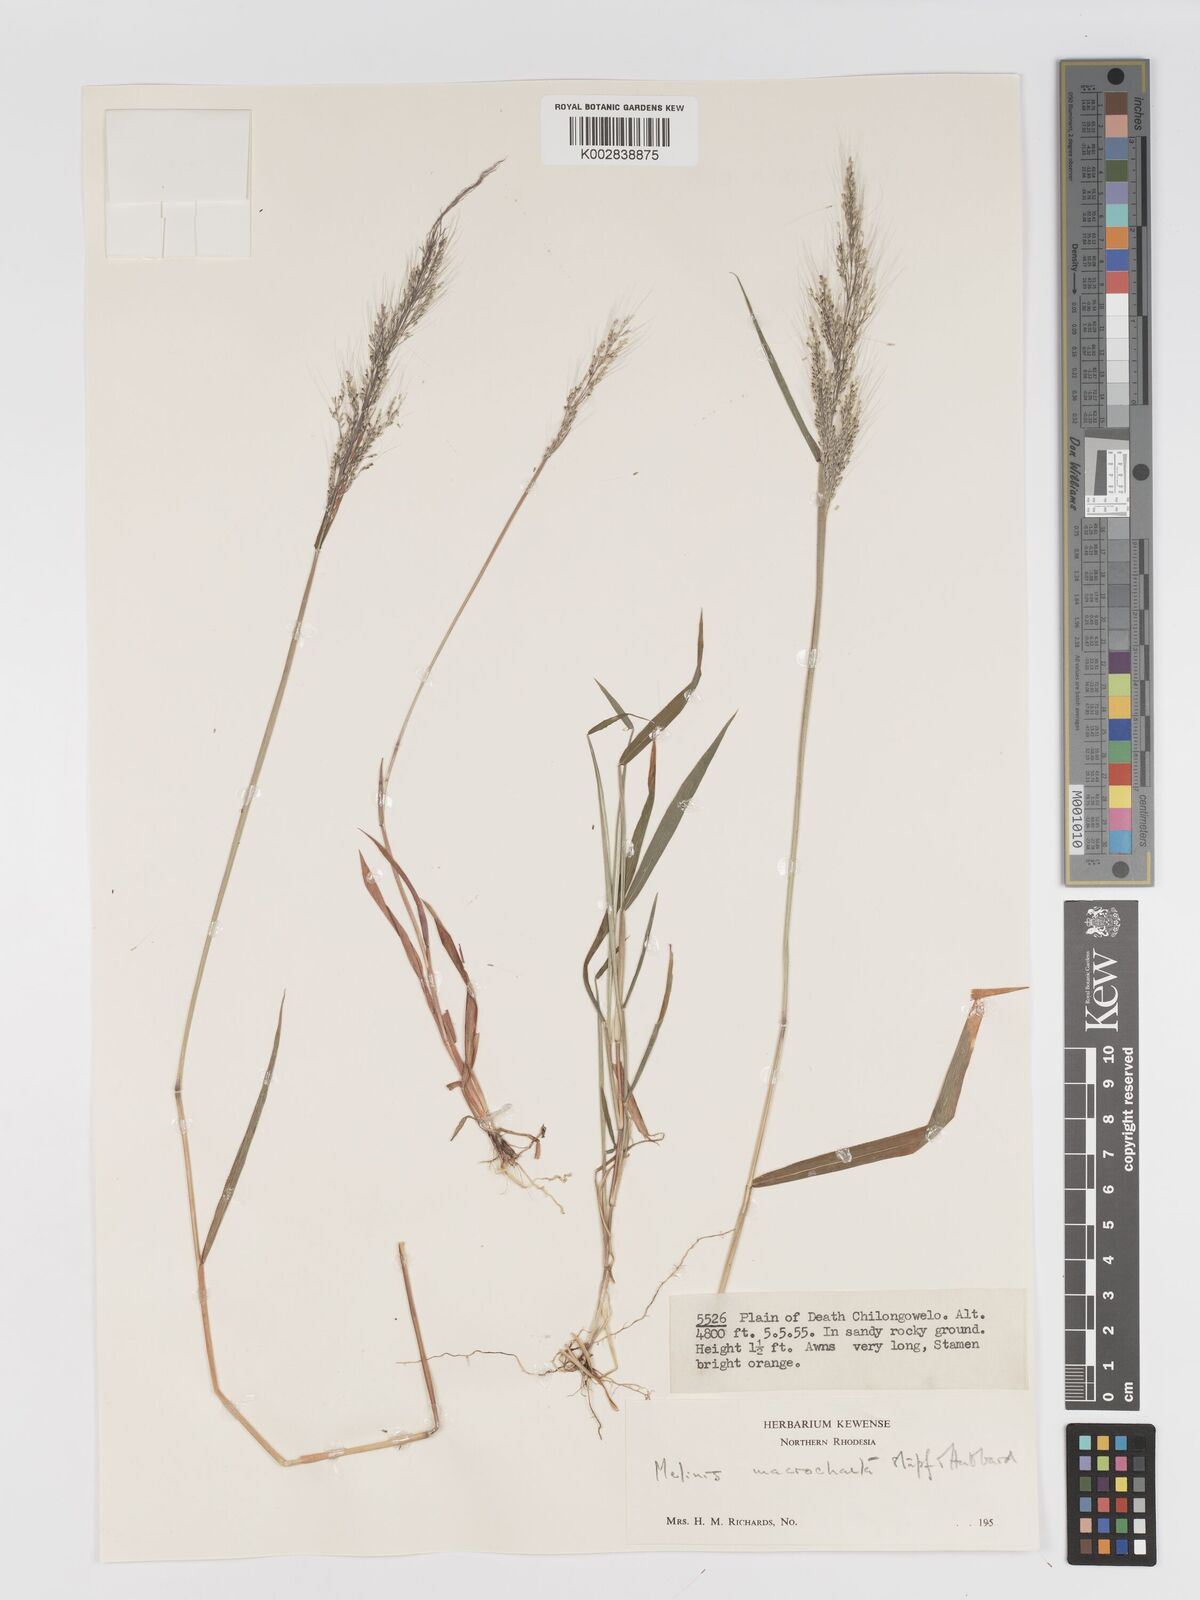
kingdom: Plantae
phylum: Tracheophyta
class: Liliopsida
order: Poales
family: Poaceae
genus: Melinis
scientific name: Melinis macrochaeta
